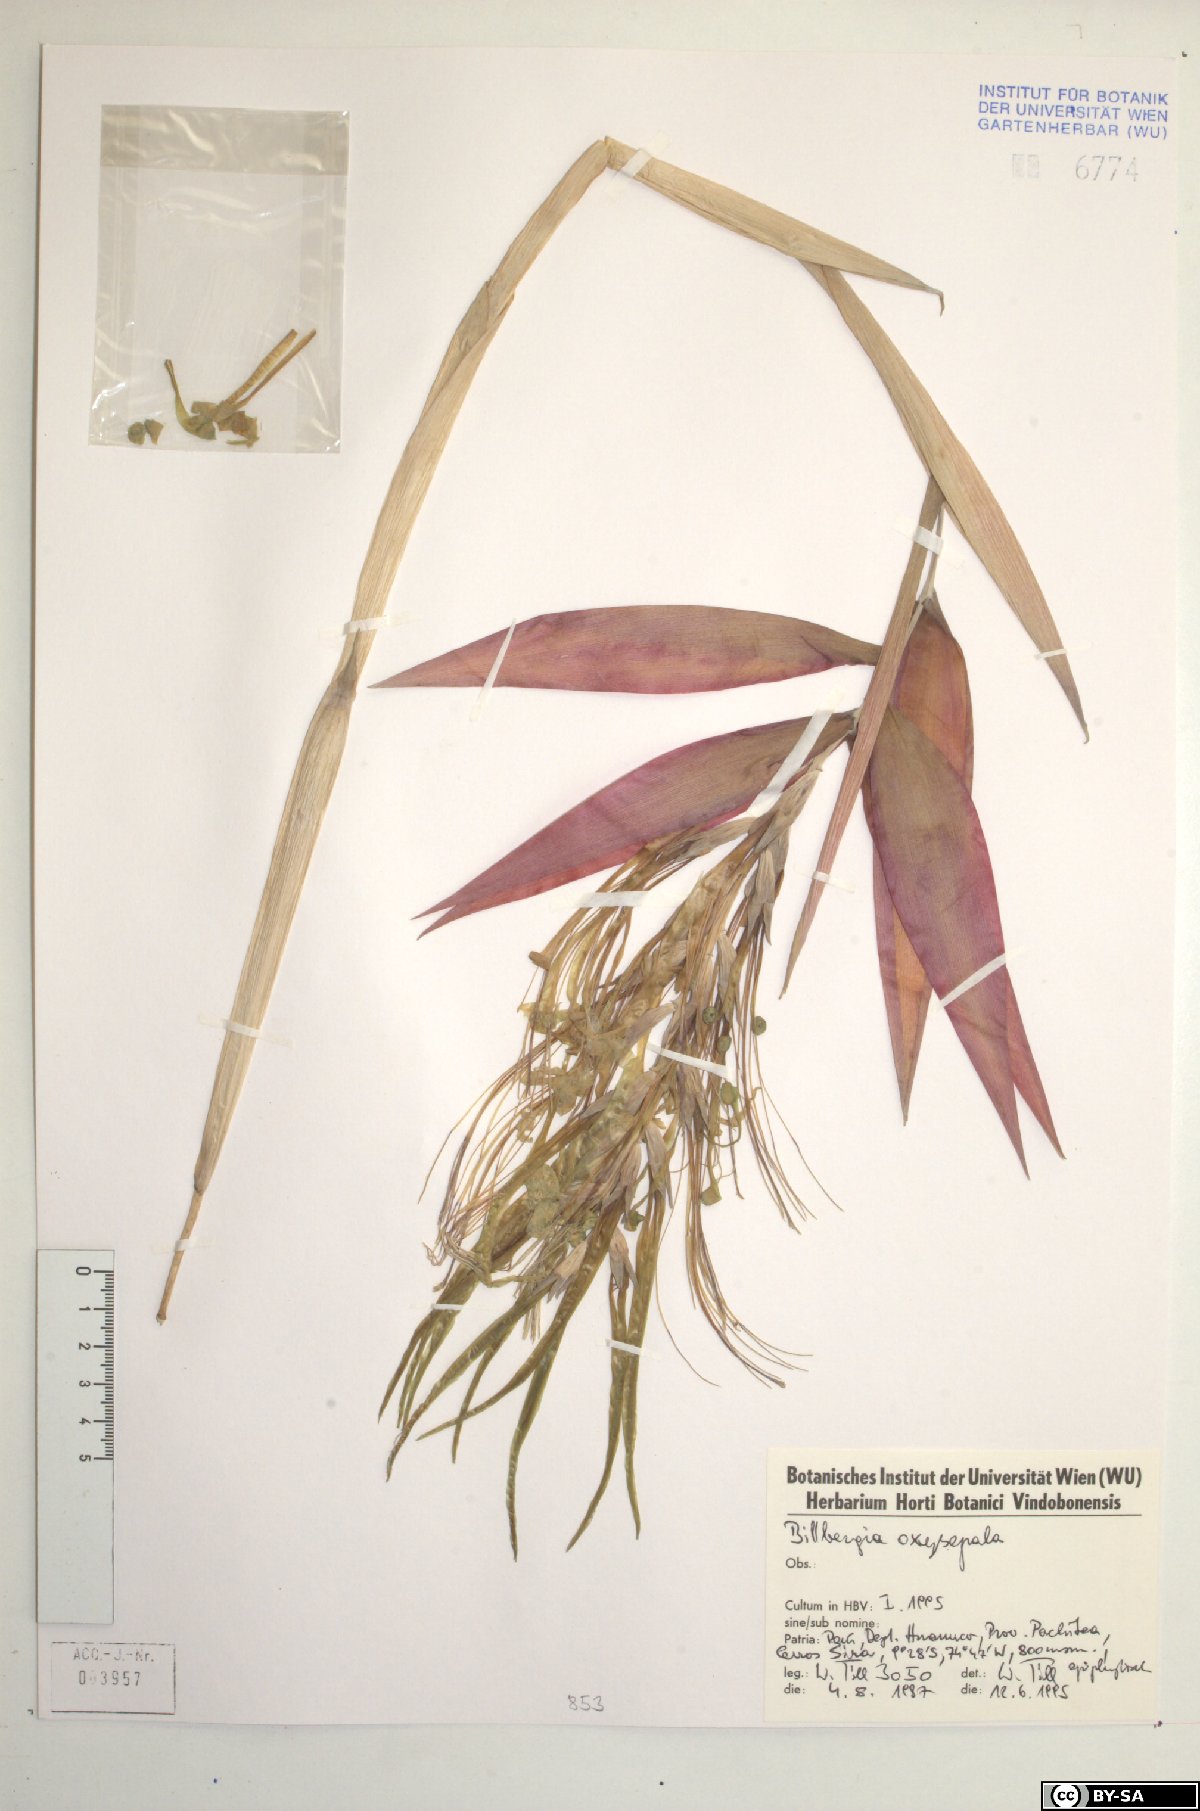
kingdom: Plantae
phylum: Tracheophyta
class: Liliopsida
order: Poales
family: Bromeliaceae
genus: Billbergia
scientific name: Billbergia oxysepala
